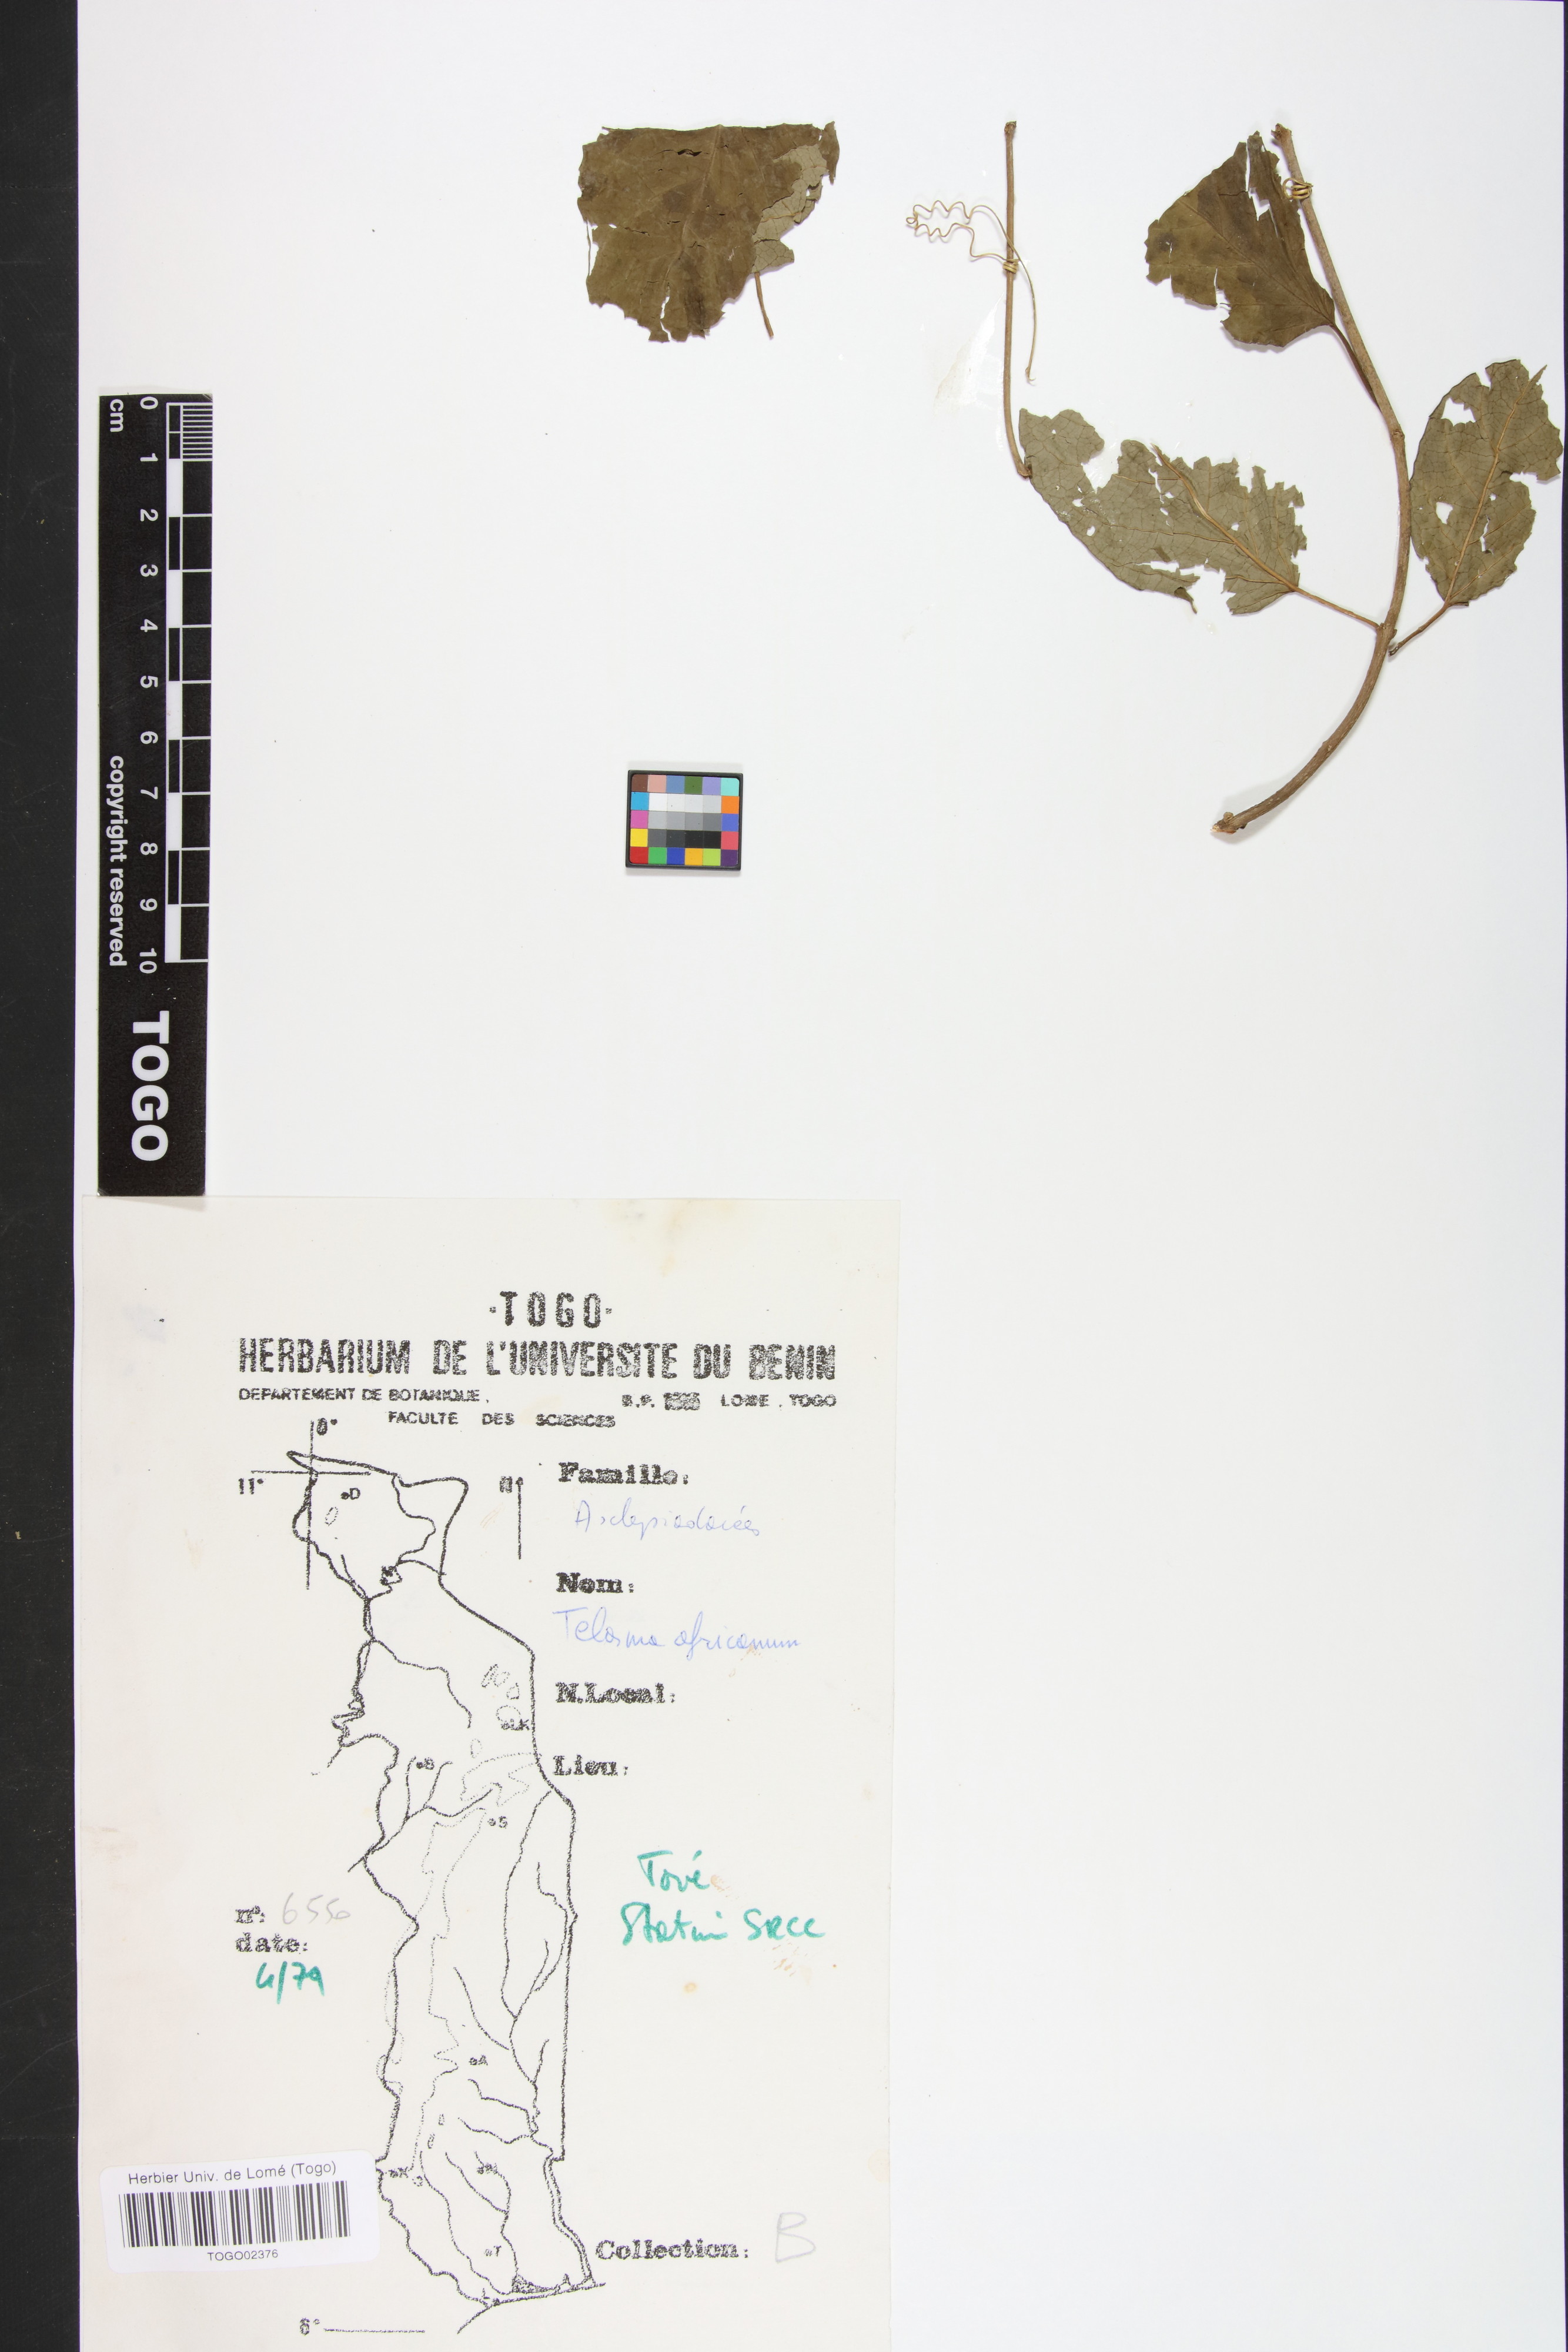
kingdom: Plantae
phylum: Tracheophyta
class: Magnoliopsida
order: Gentianales
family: Apocynaceae
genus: Telosma
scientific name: Telosma africana
